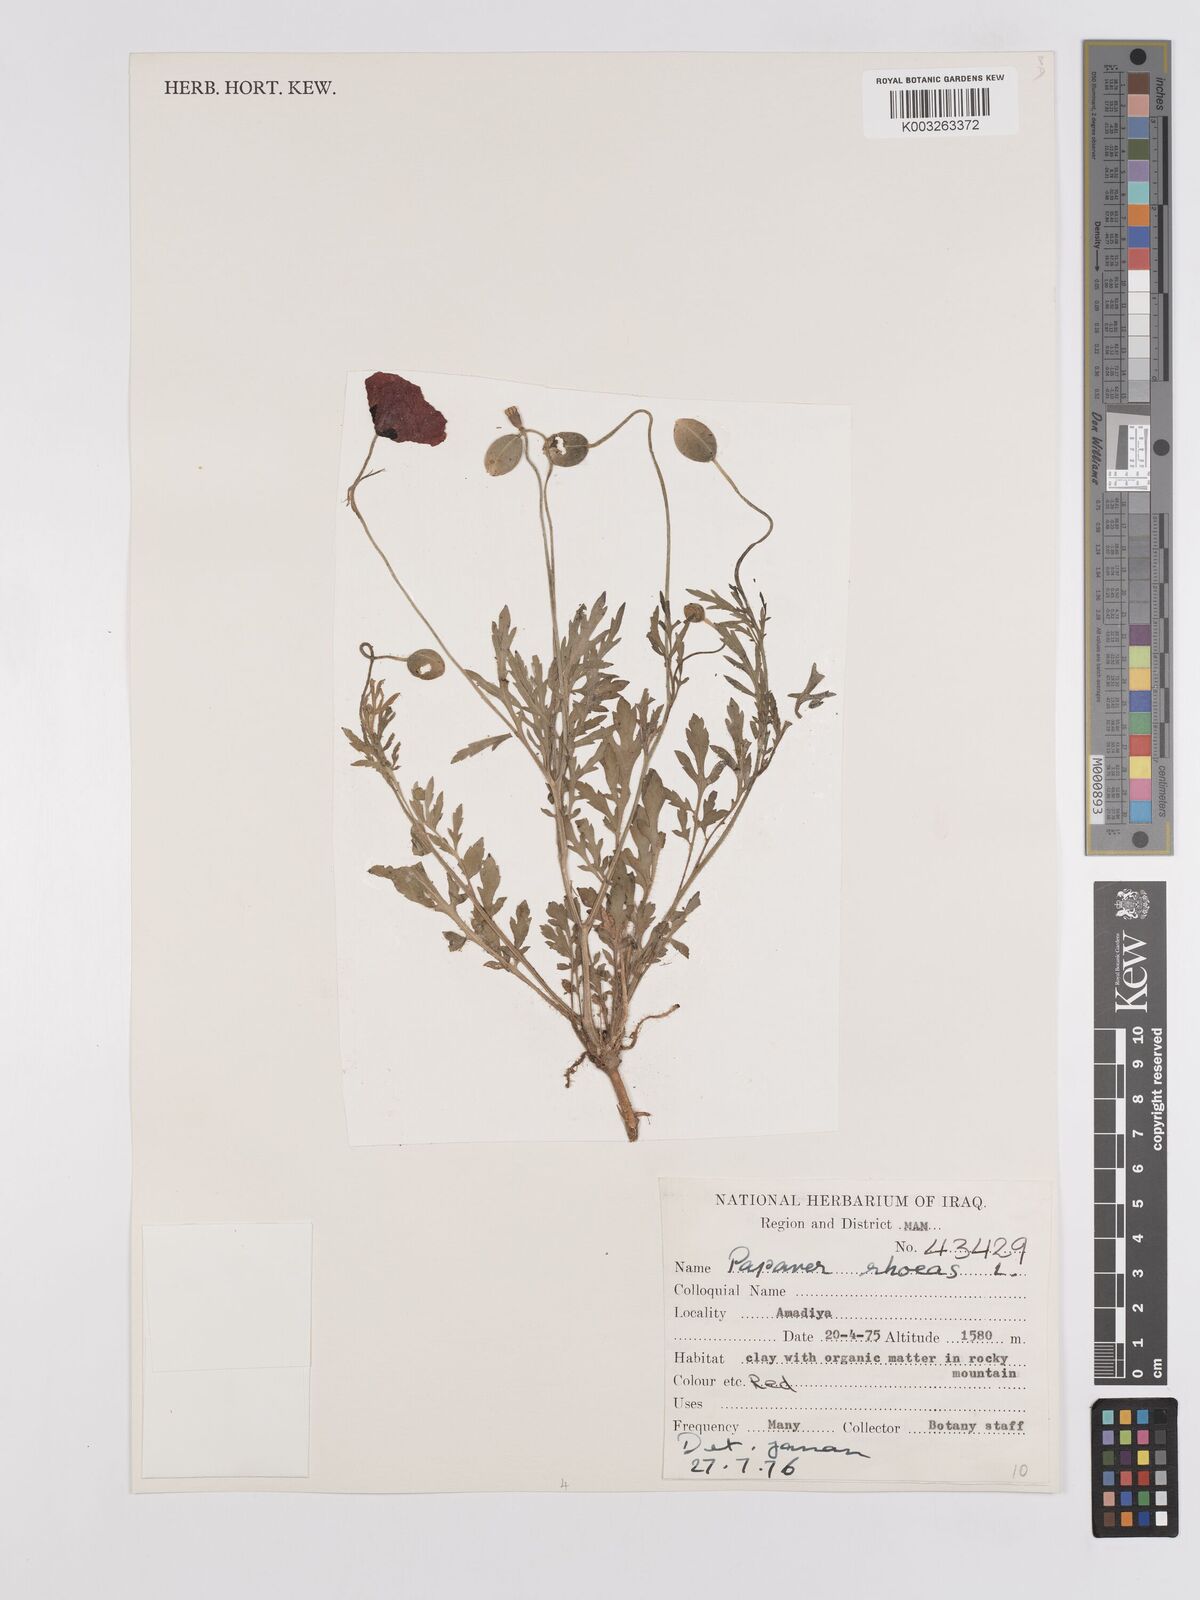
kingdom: Plantae
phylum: Tracheophyta
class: Magnoliopsida
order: Ranunculales
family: Papaveraceae
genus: Papaver
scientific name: Papaver rhoeas
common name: Corn poppy
